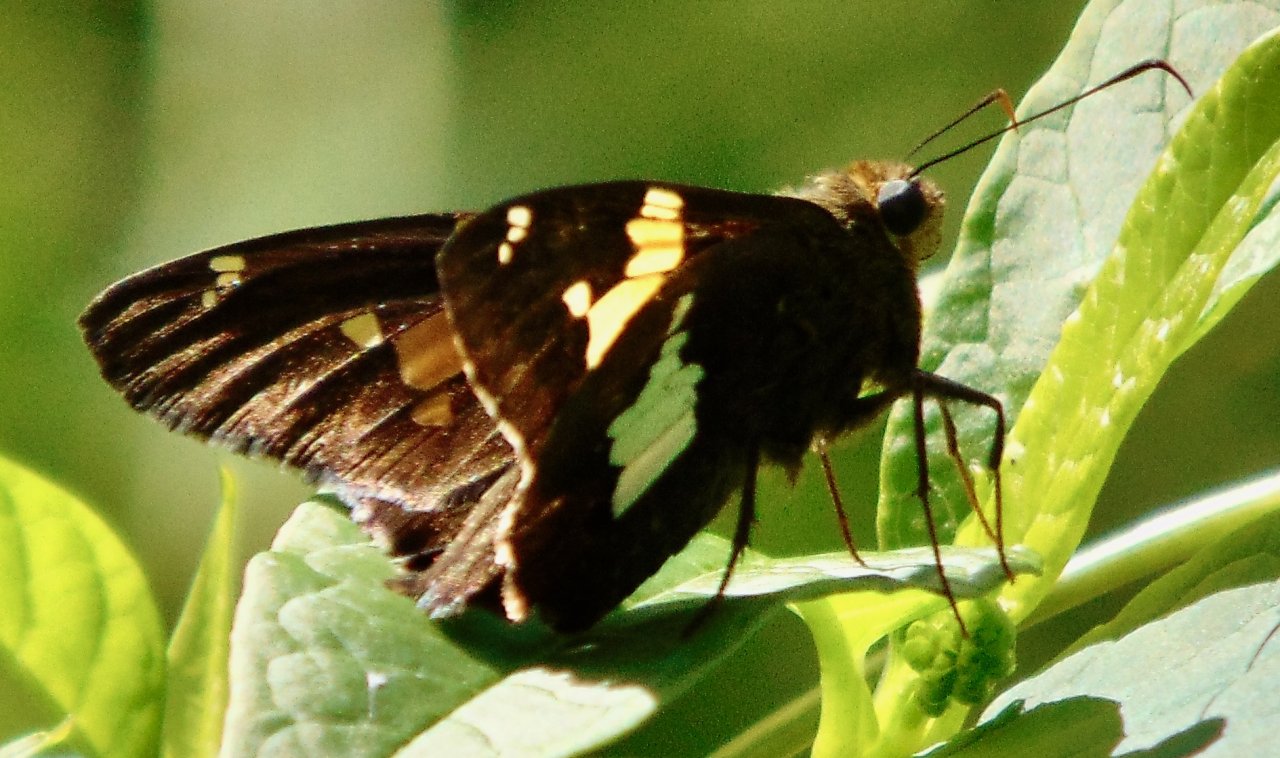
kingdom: Animalia
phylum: Arthropoda
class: Insecta
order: Lepidoptera
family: Hesperiidae
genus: Epargyreus
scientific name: Epargyreus clarus
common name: Silver-spotted Skipper
